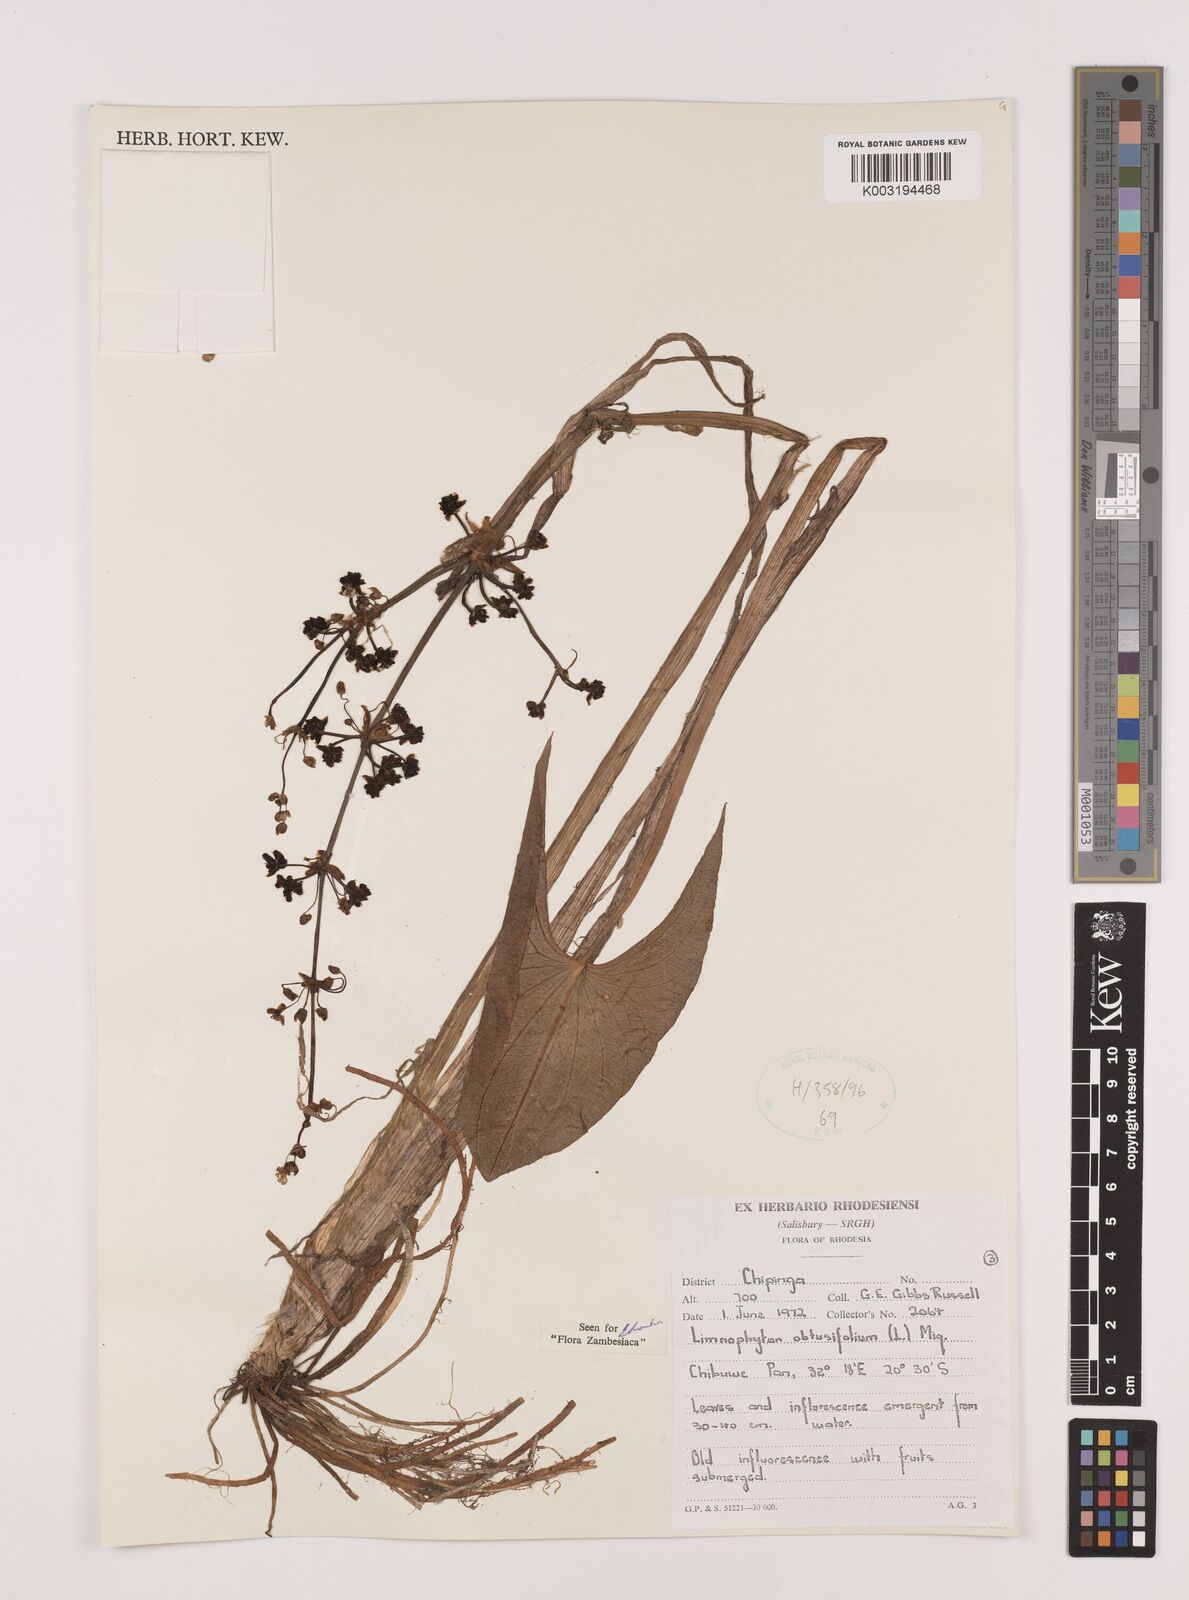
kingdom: Plantae
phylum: Tracheophyta
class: Liliopsida
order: Alismatales
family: Alismataceae
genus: Limnophyton
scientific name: Limnophyton obtusifolium
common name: Arrow head
